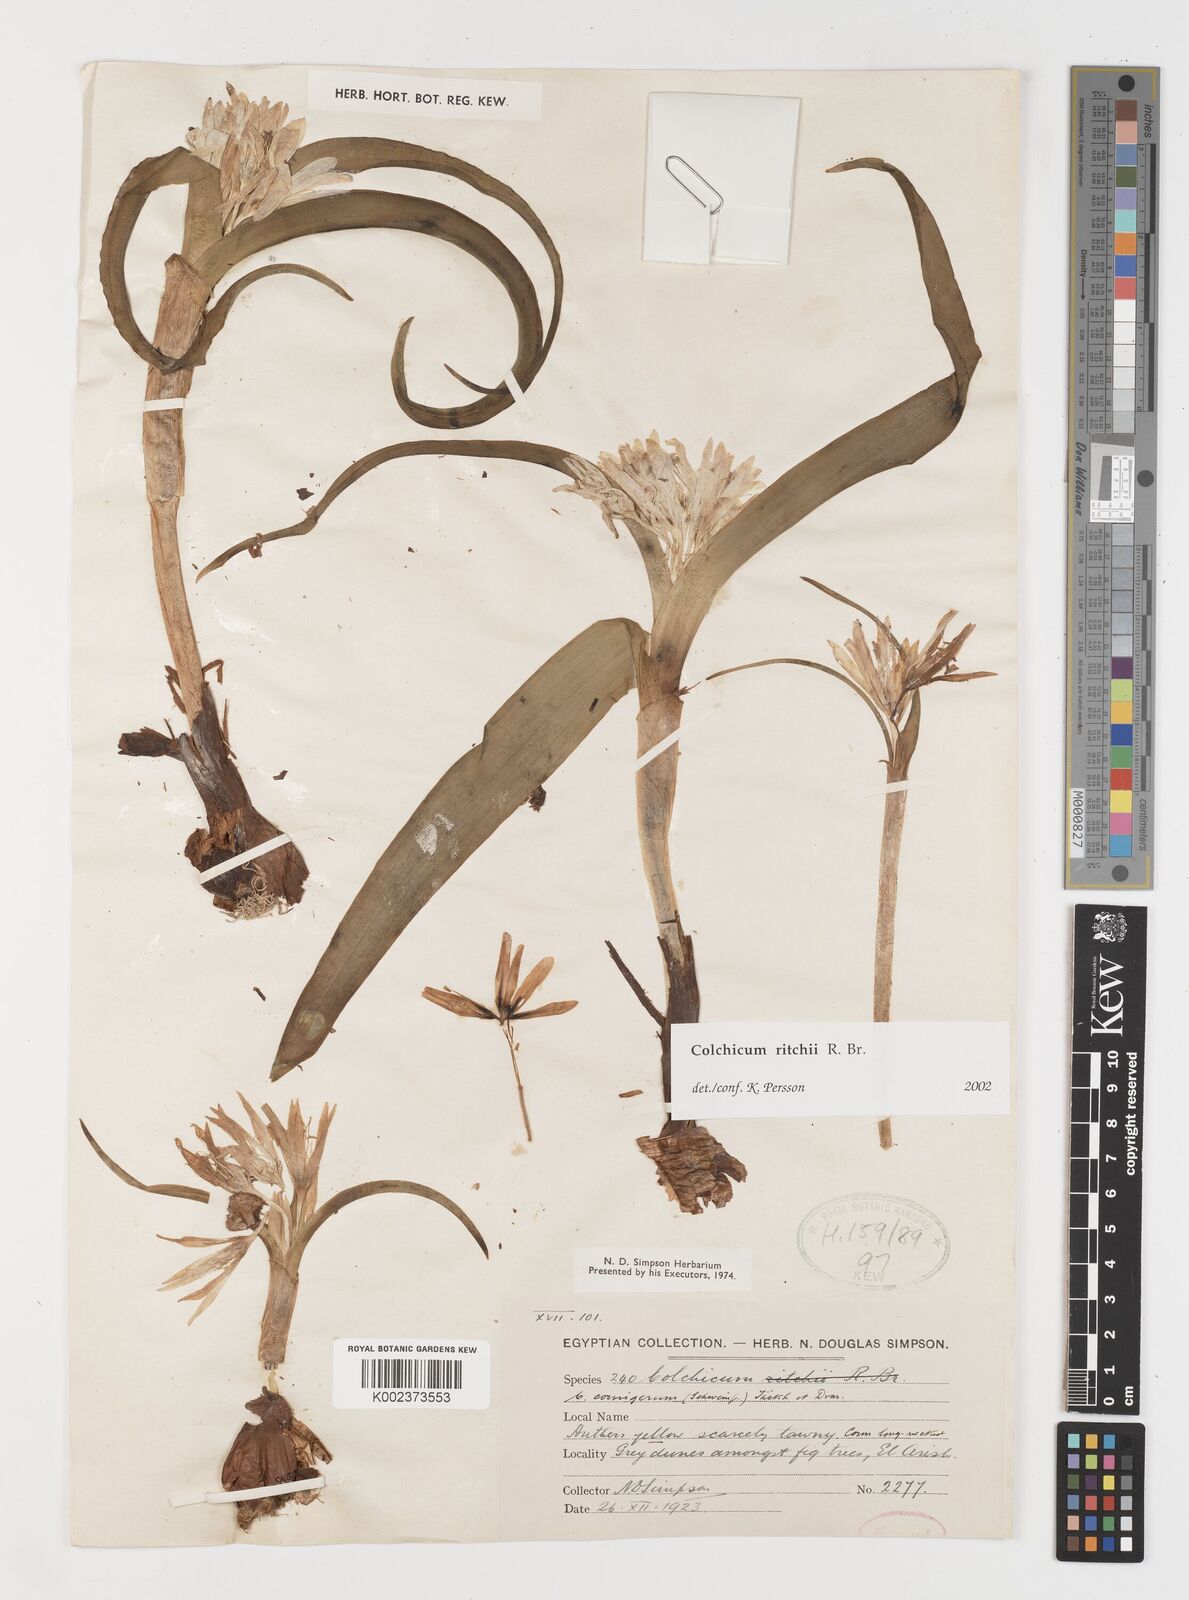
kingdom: Plantae
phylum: Tracheophyta
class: Liliopsida
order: Liliales
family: Colchicaceae
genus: Colchicum
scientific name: Colchicum ritchii
